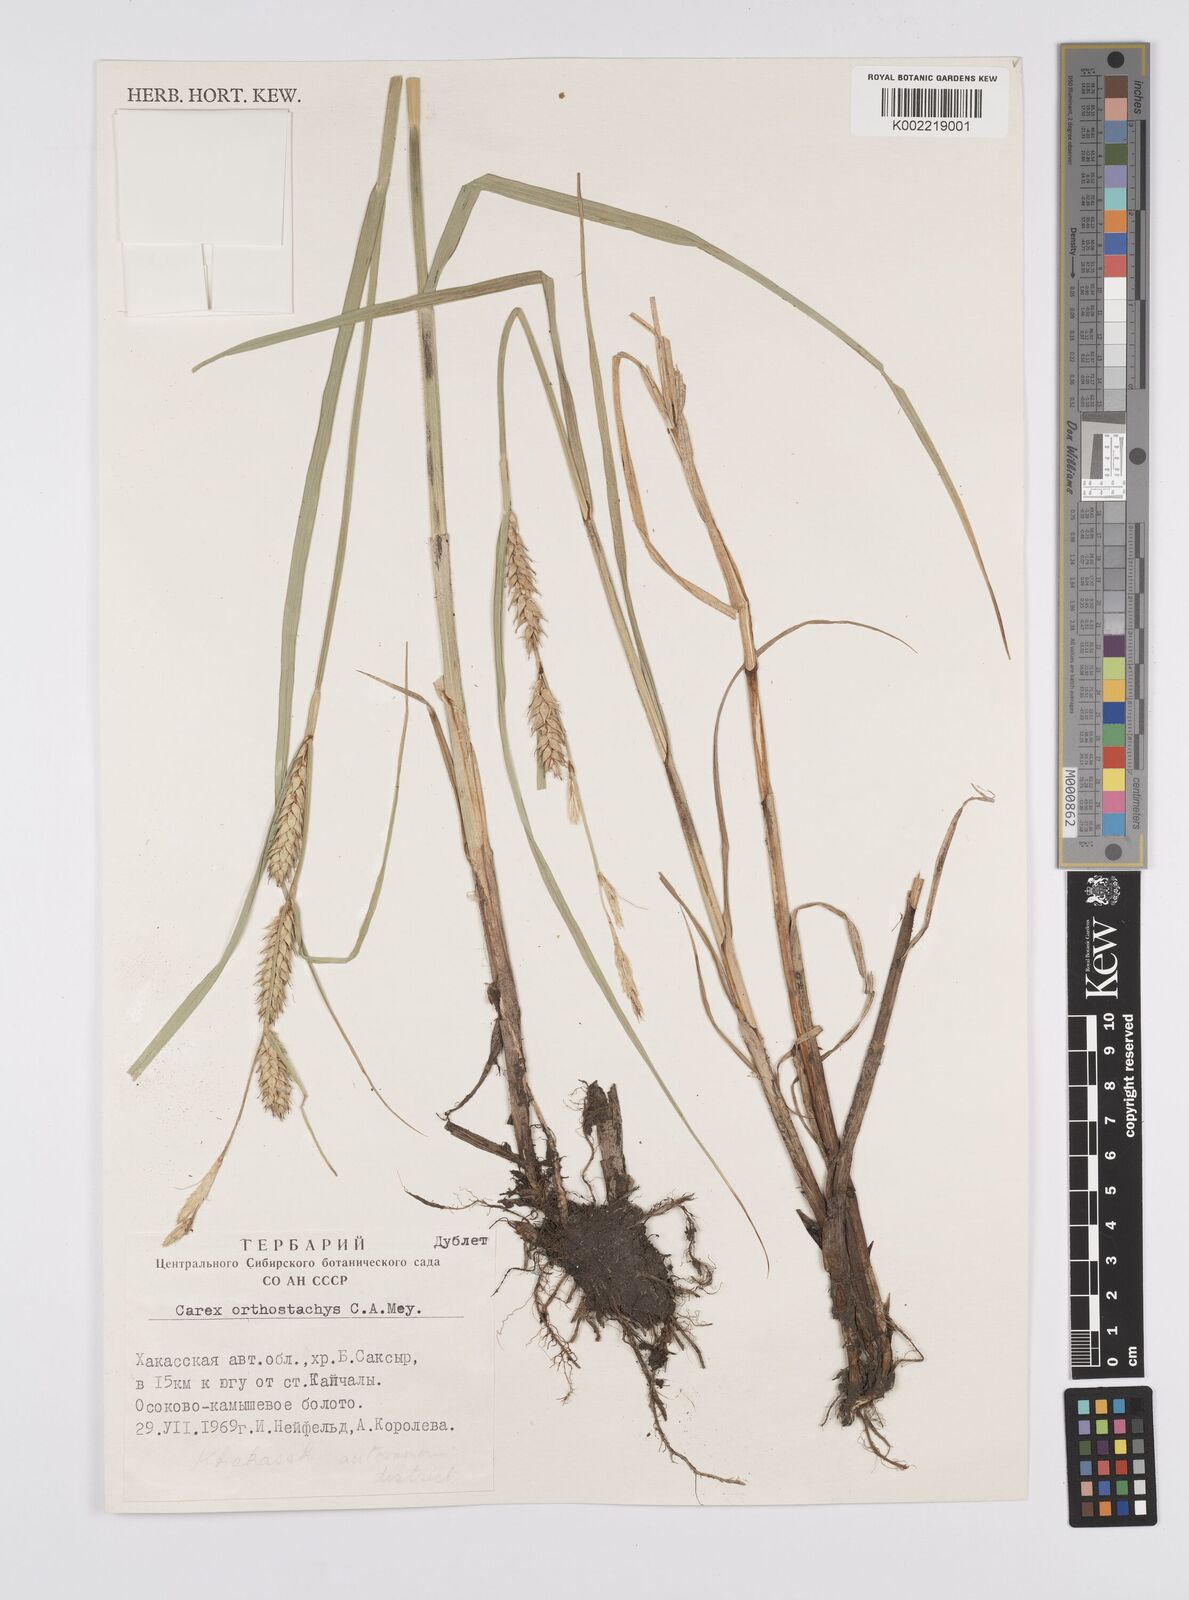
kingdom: Plantae
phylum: Tracheophyta
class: Liliopsida
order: Poales
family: Cyperaceae
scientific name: Cyperaceae
